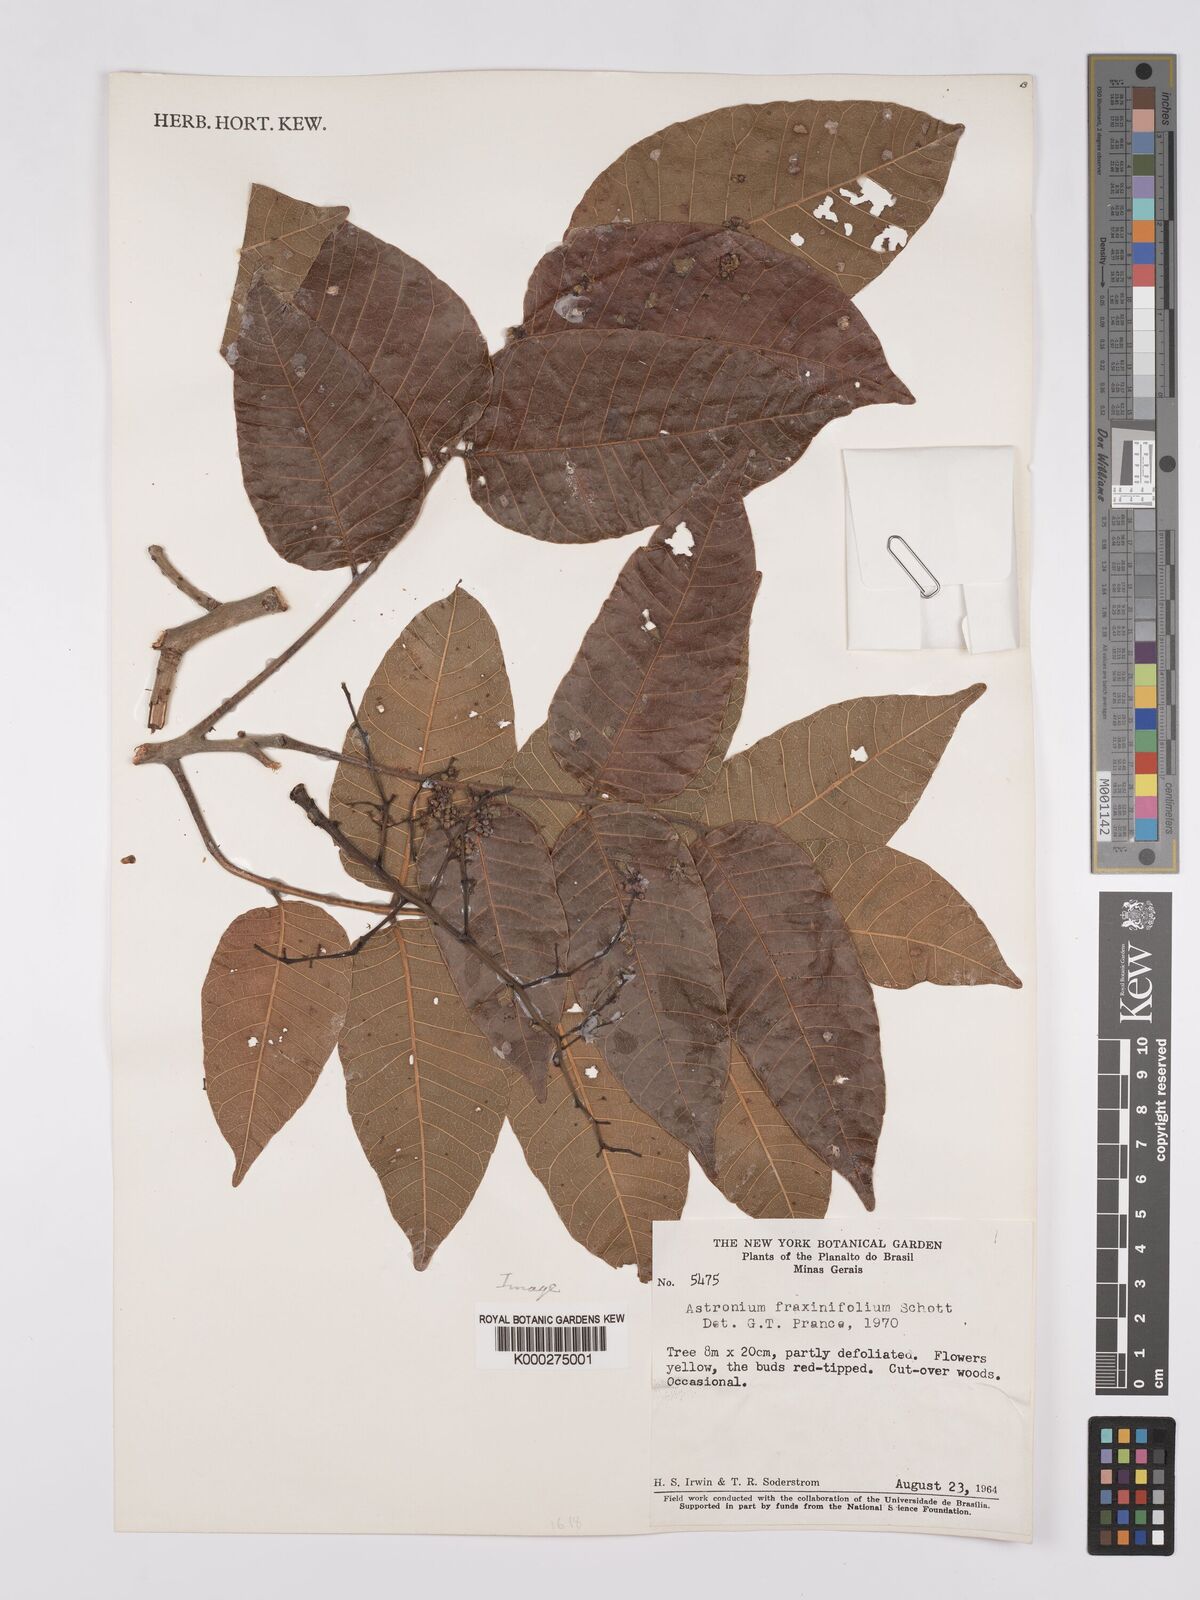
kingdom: Plantae
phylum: Tracheophyta
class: Magnoliopsida
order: Sapindales
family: Anacardiaceae
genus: Astronium
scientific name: Astronium fraxinifolium
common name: Tigerwood
